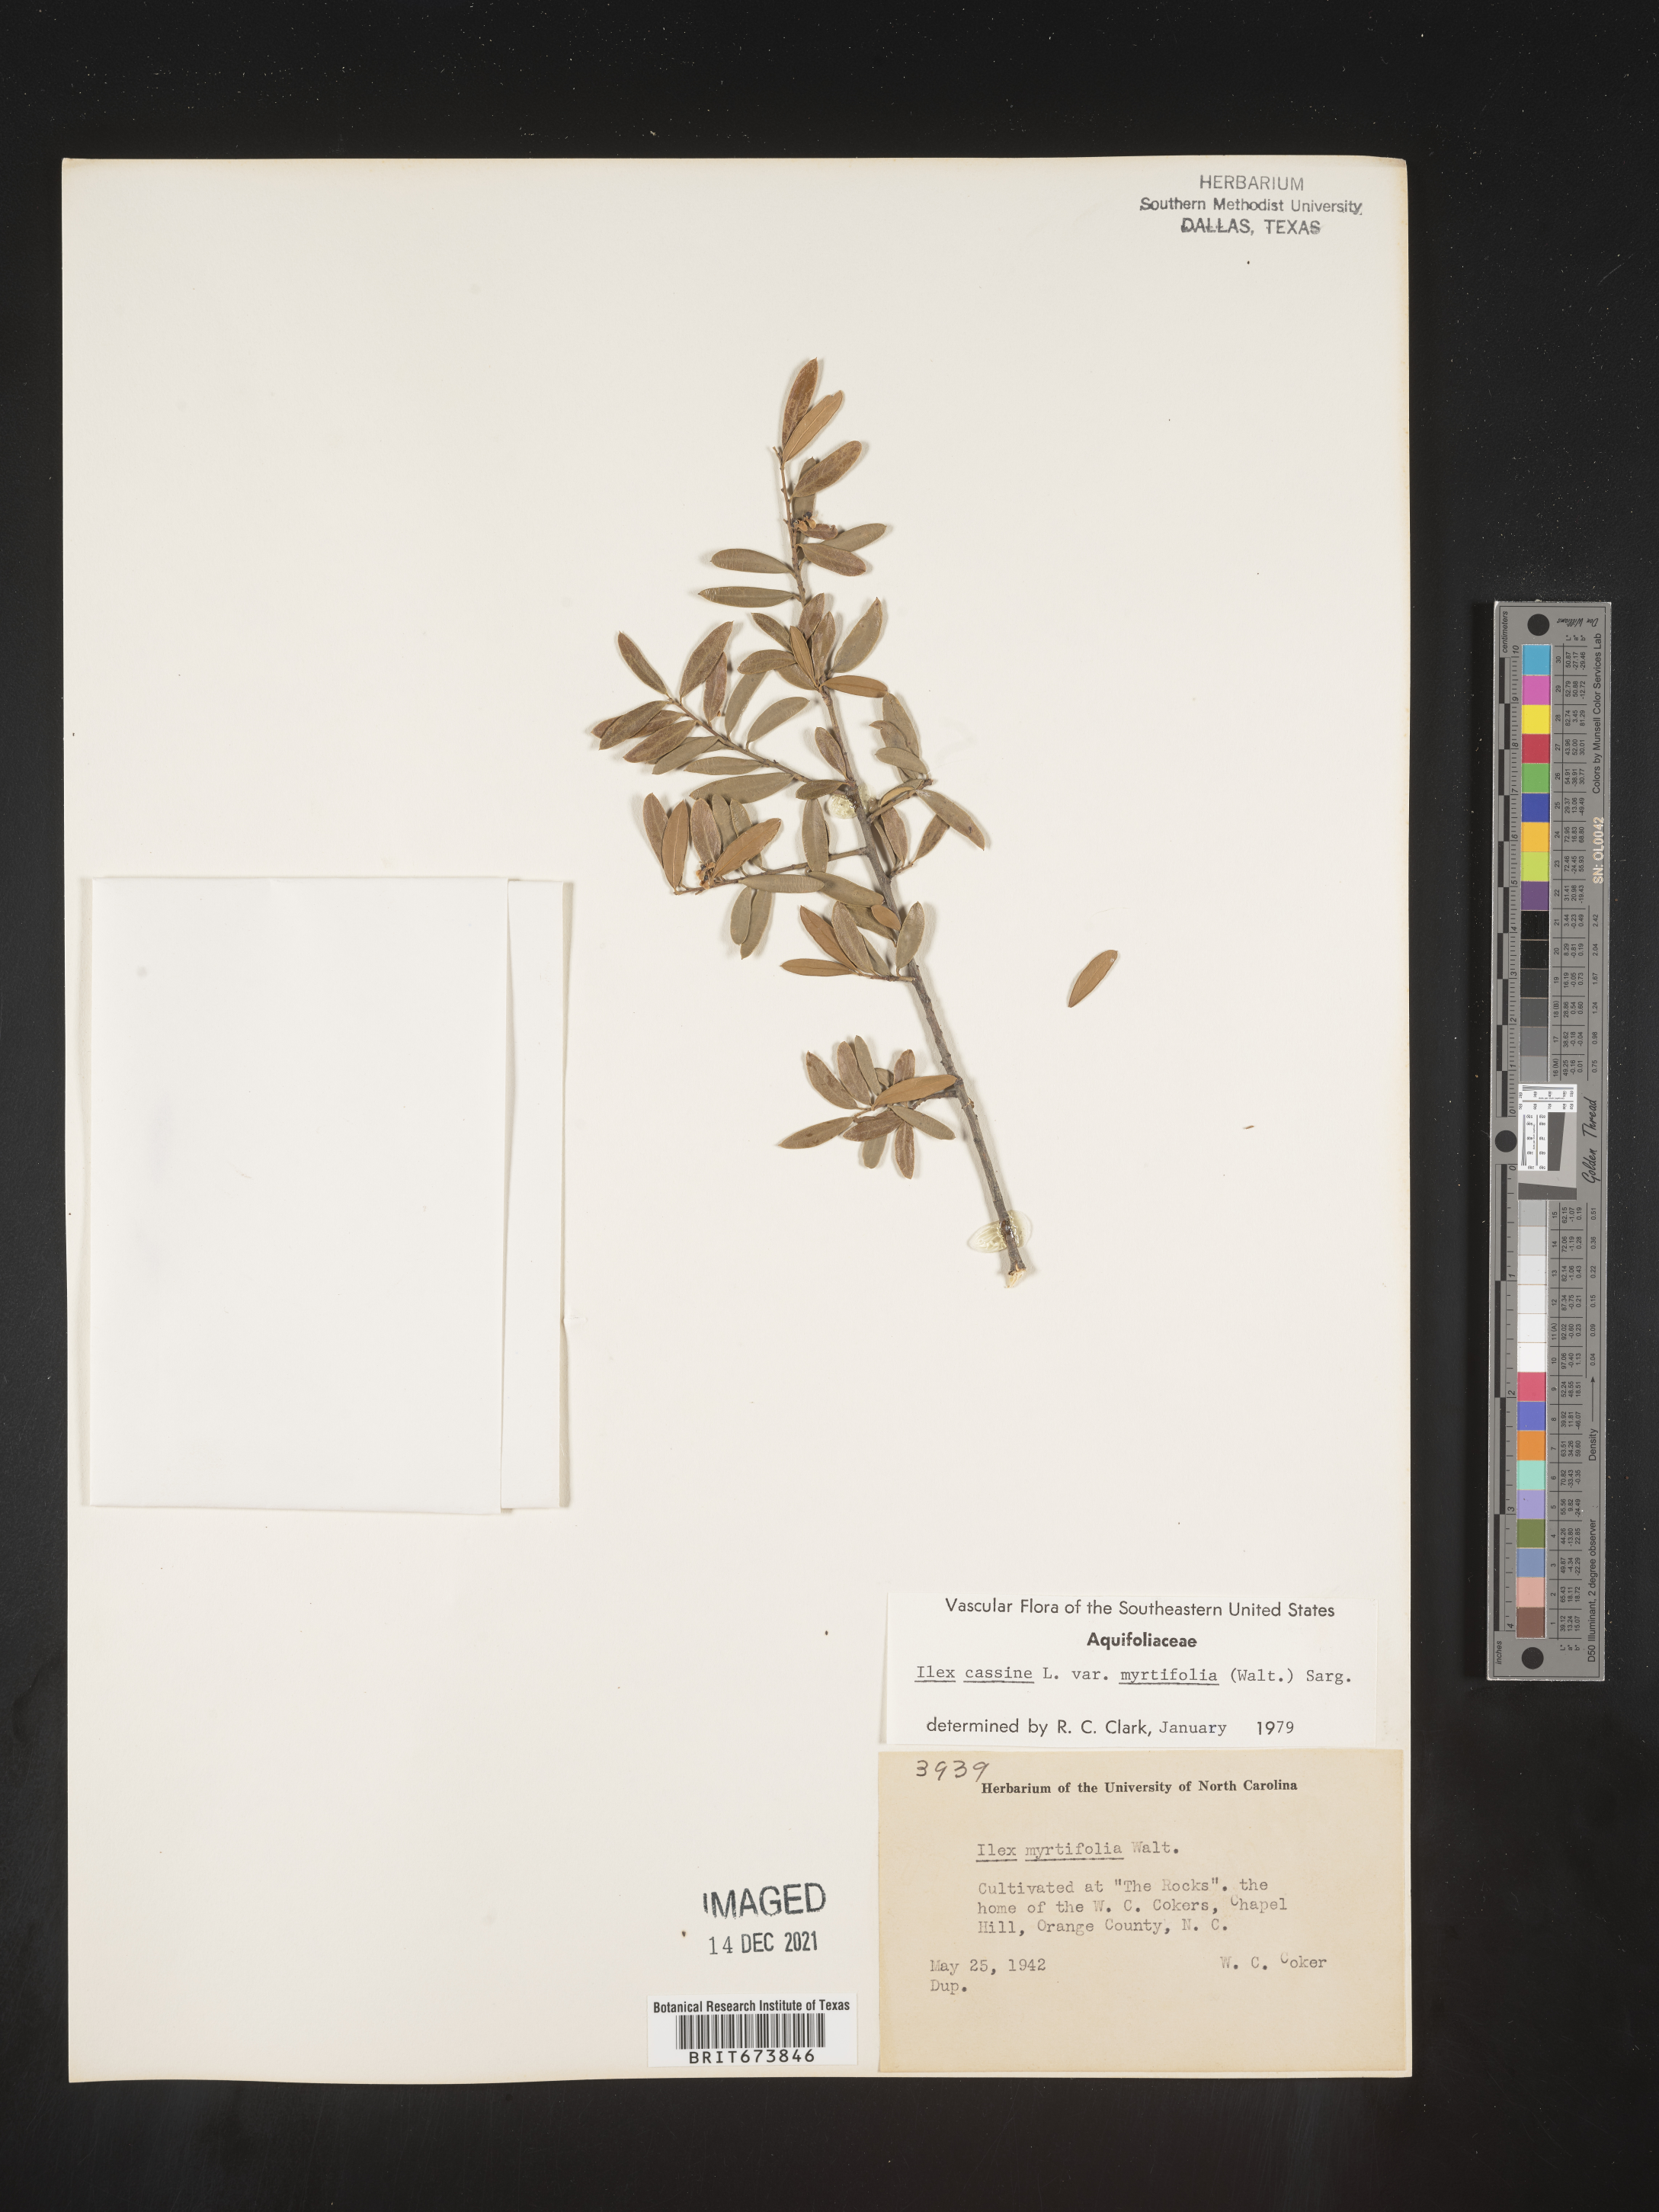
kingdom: Plantae
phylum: Tracheophyta
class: Magnoliopsida
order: Aquifoliales
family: Aquifoliaceae
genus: Ilex
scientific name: Ilex myrtifolia
